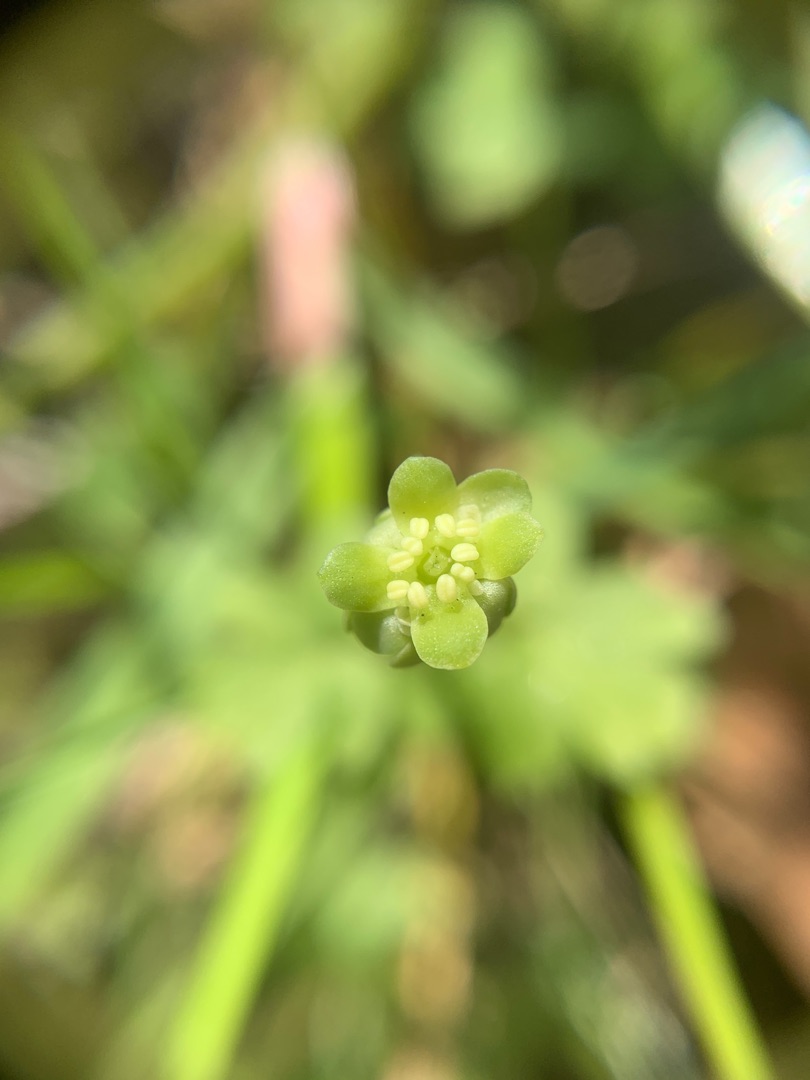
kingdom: Plantae
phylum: Tracheophyta
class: Magnoliopsida
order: Dipsacales
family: Viburnaceae
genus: Adoxa
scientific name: Adoxa moschatellina
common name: Desmerurt
